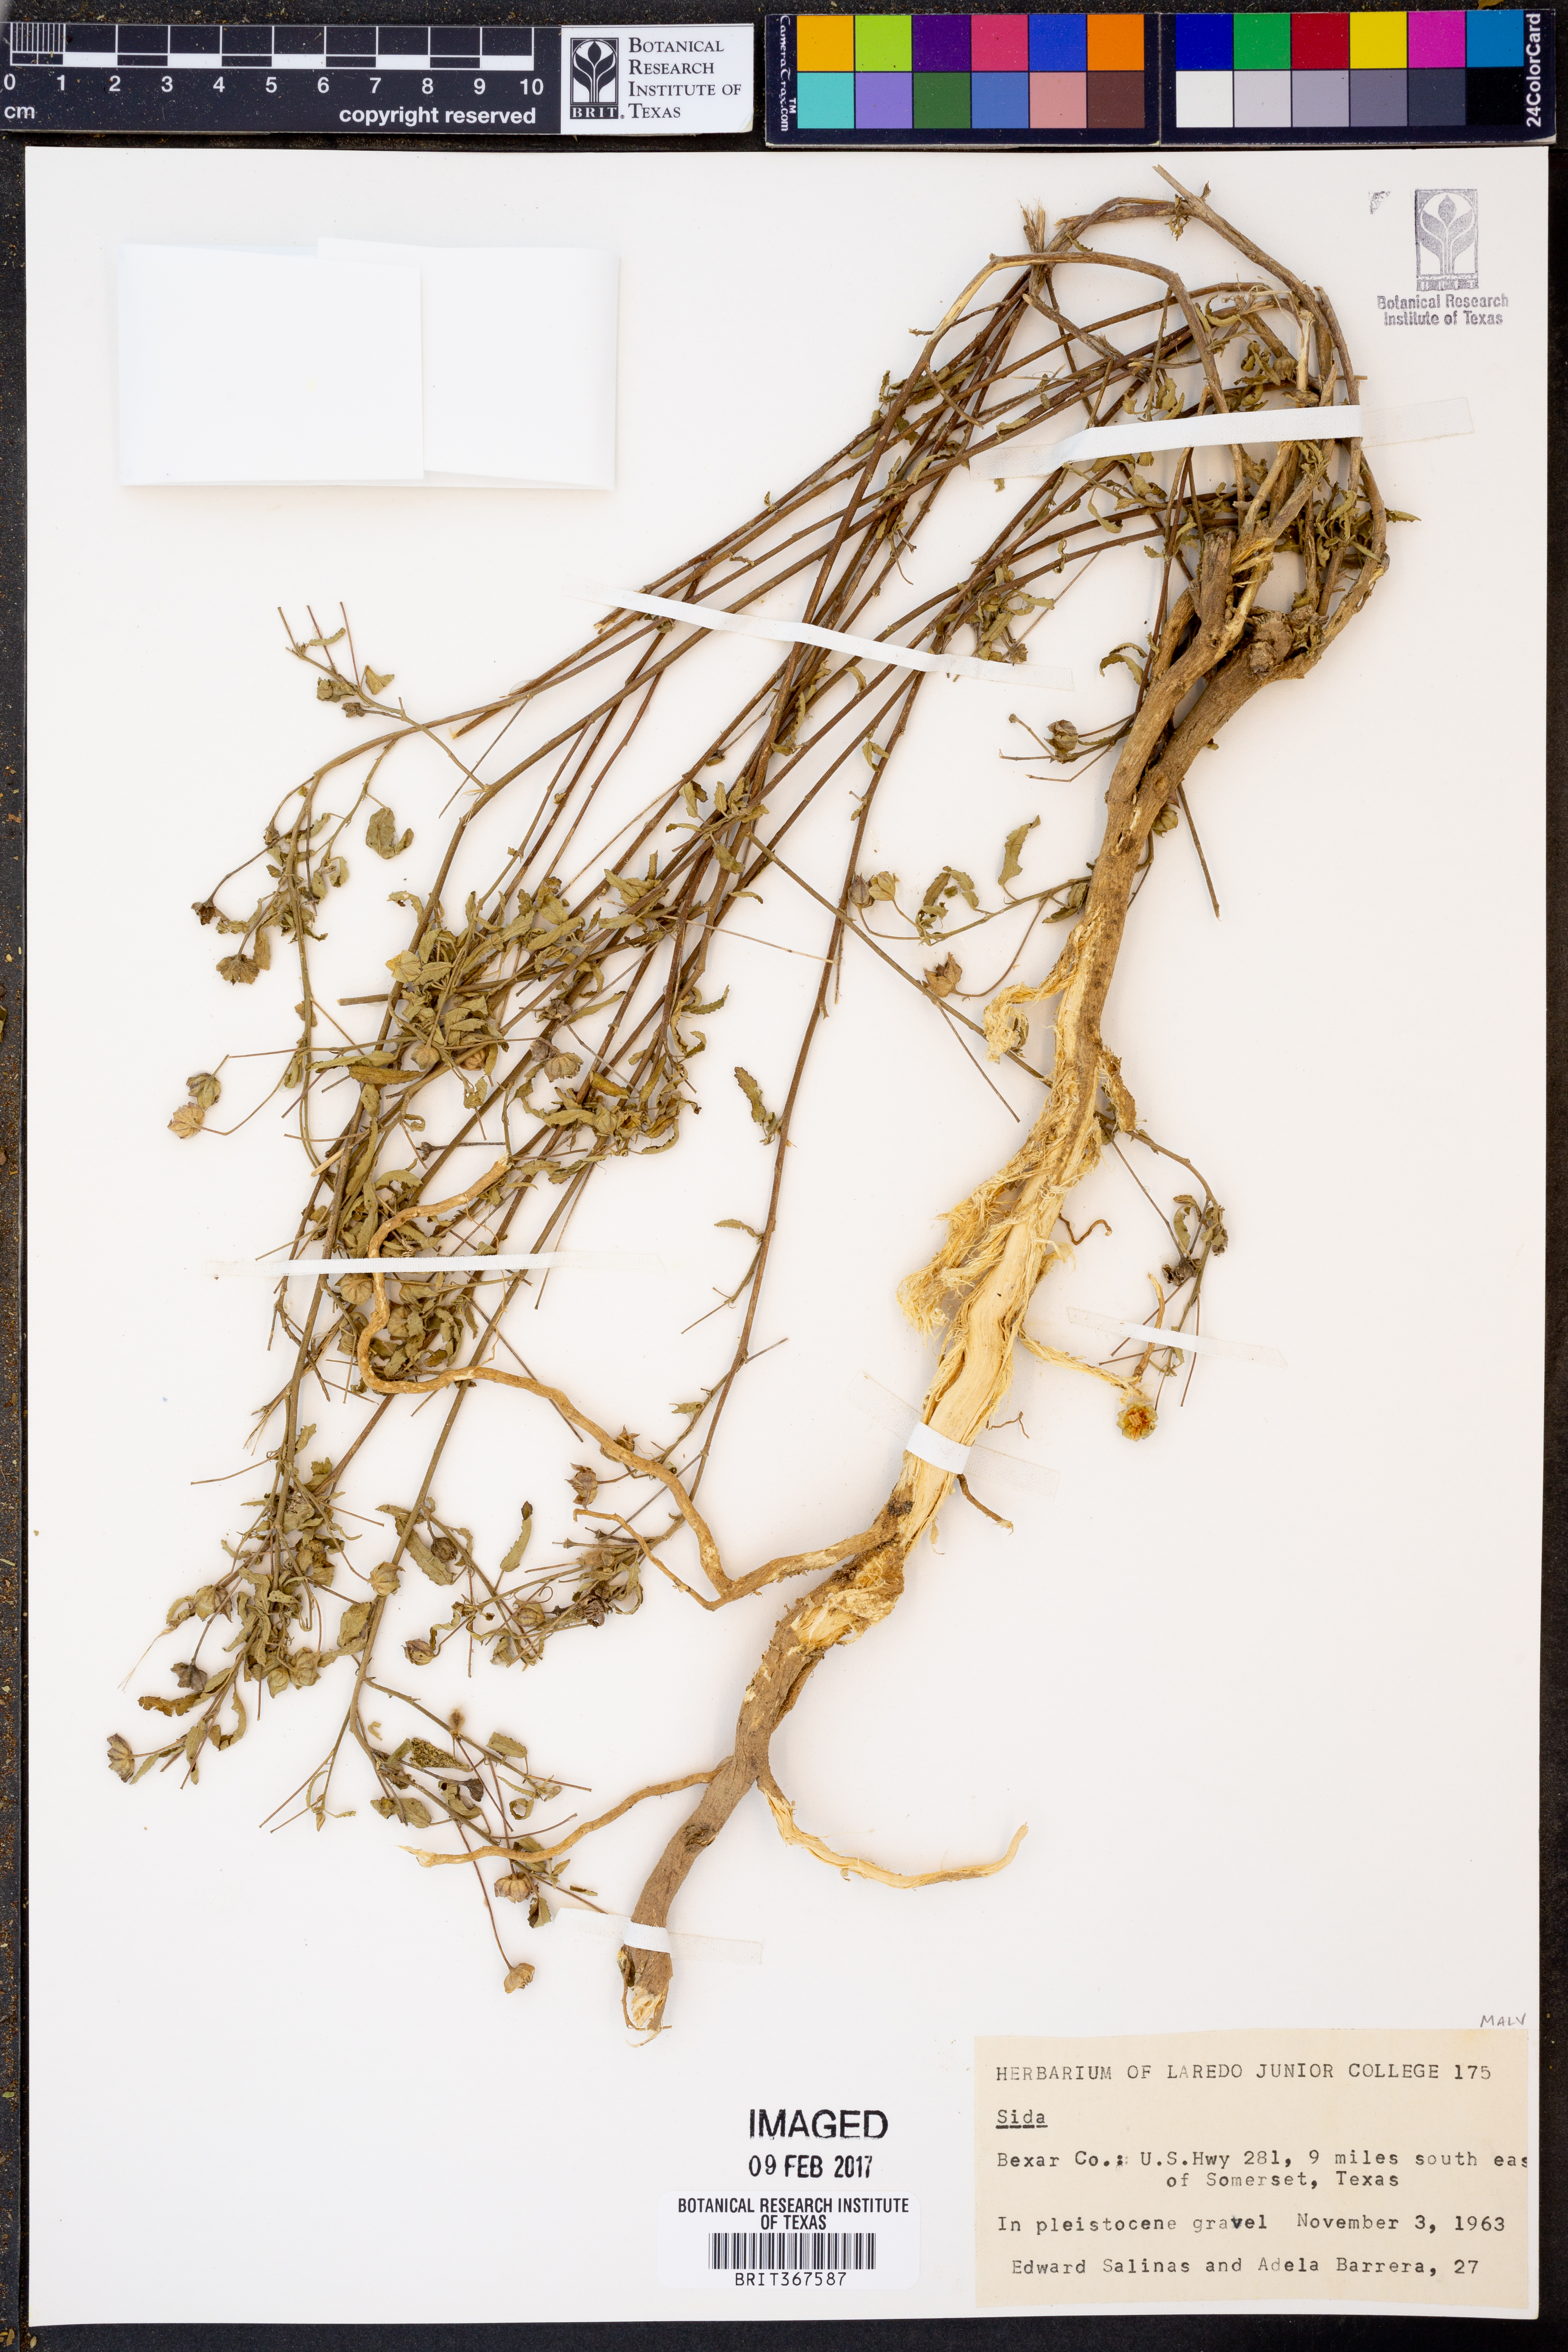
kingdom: Plantae
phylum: Tracheophyta
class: Magnoliopsida
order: Malvales
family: Malvaceae
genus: Sida
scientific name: Sida
